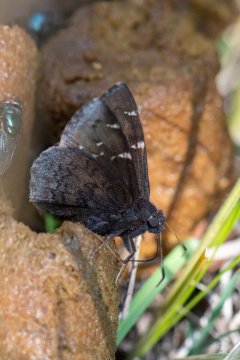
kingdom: Animalia
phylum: Arthropoda
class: Insecta
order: Lepidoptera
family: Hesperiidae
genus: Autochton
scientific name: Autochton
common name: Northern Cloudywing
